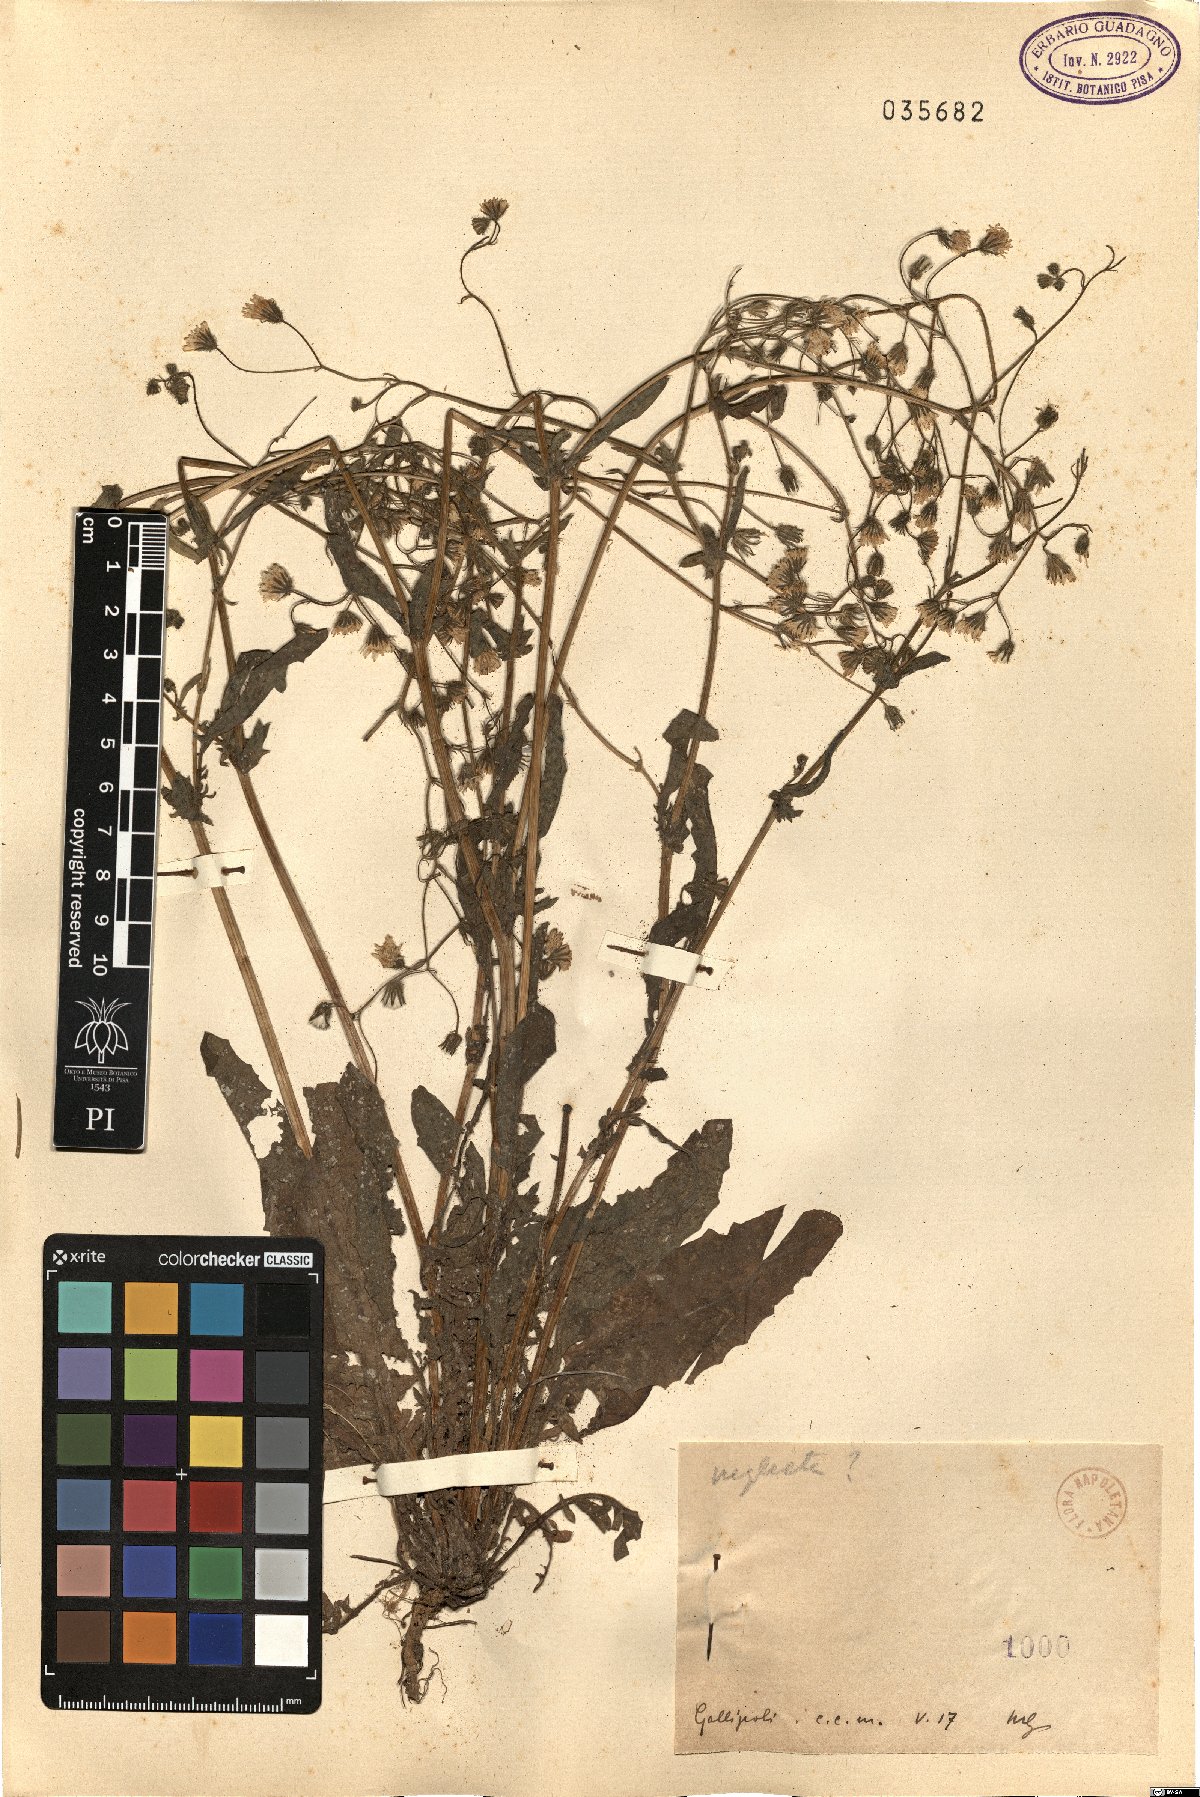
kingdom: Plantae
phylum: Tracheophyta
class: Magnoliopsida
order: Asterales
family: Asteraceae
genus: Crepis
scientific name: Crepis neglecta
